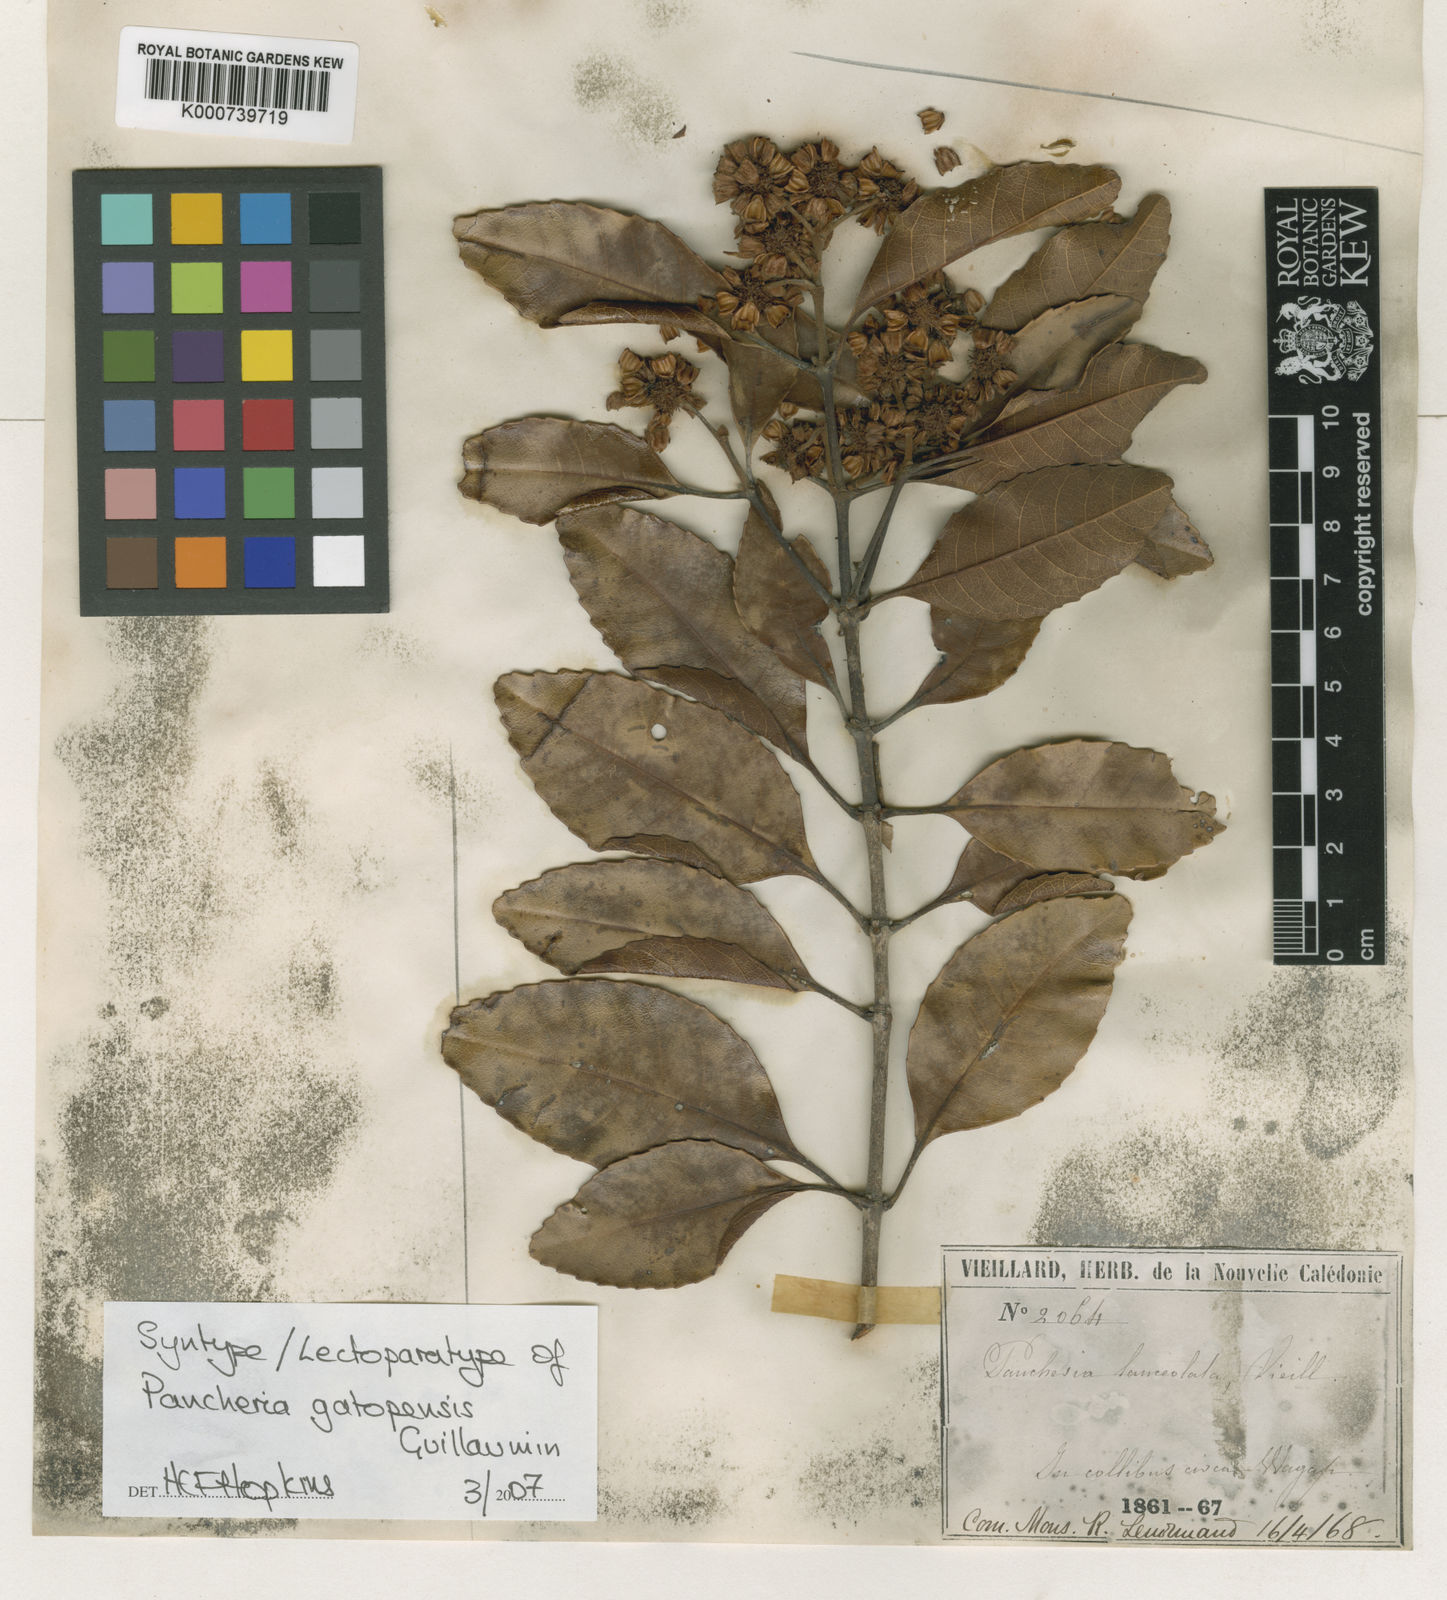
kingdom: Plantae
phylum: Tracheophyta
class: Magnoliopsida
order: Oxalidales
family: Cunoniaceae
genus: Pancheria
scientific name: Pancheria gatopensis
